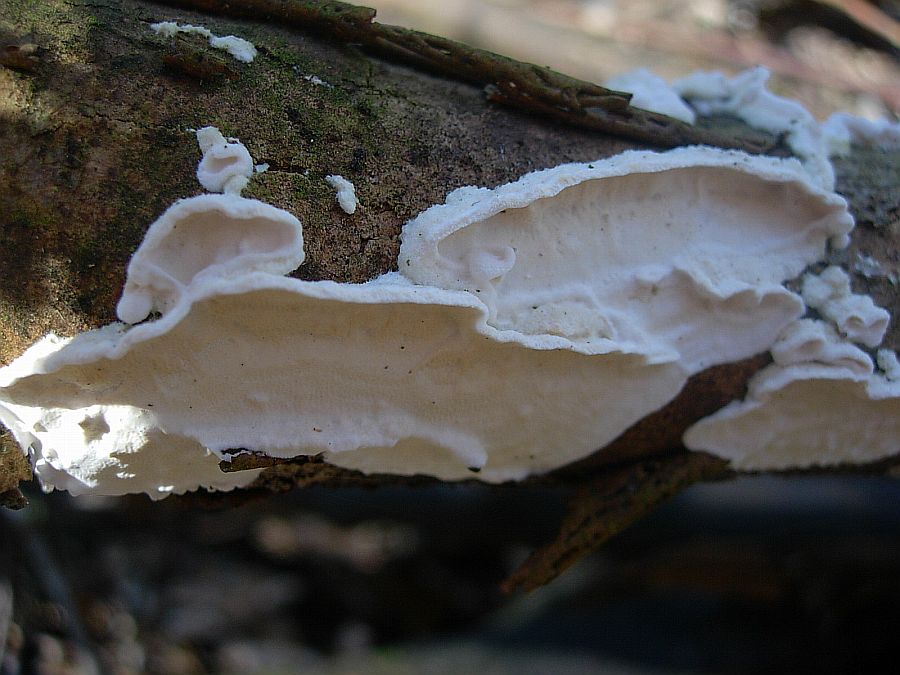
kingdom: Fungi
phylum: Basidiomycota
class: Agaricomycetes
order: Polyporales
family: Irpicaceae
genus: Byssomerulius
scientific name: Byssomerulius corium
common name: læder-åresvamp
